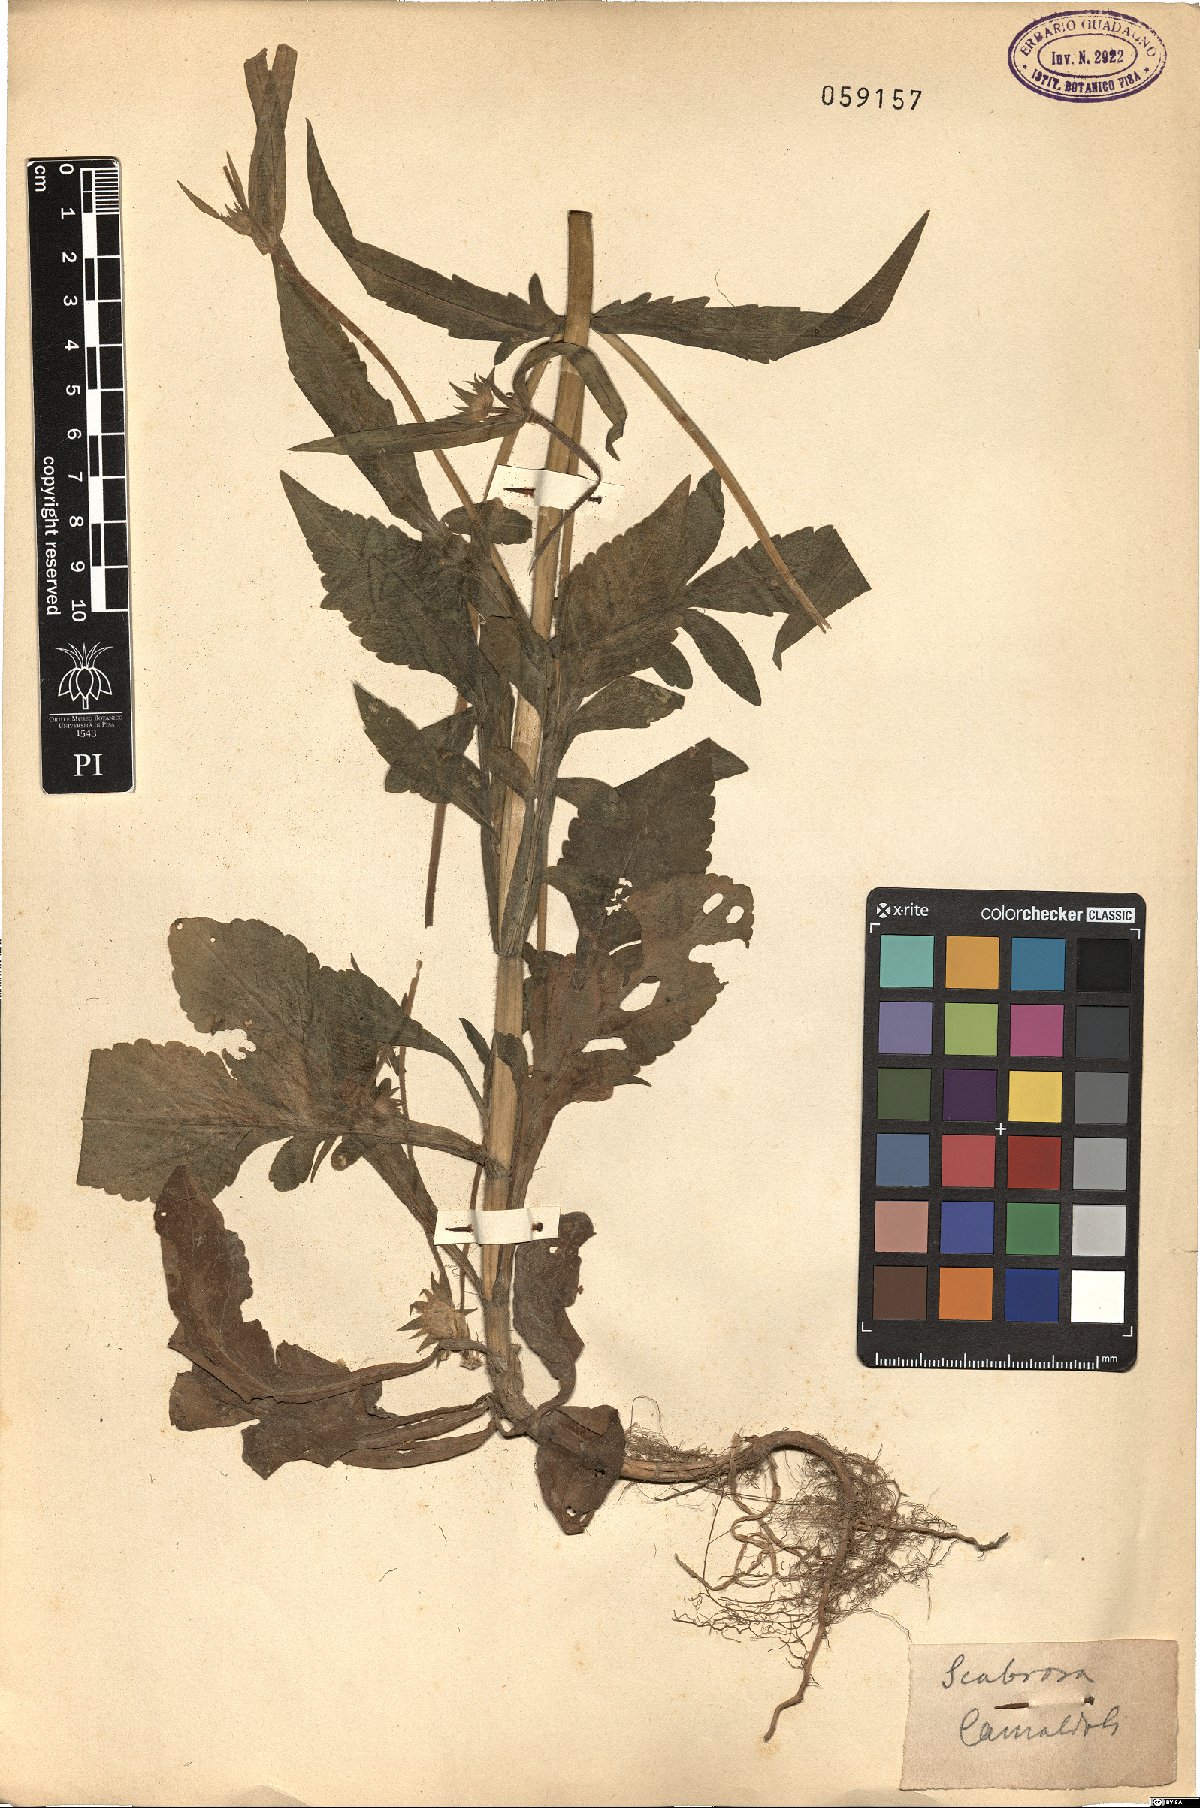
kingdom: Plantae
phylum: Tracheophyta
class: Magnoliopsida
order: Dipsacales
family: Caprifoliaceae
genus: Scabiosa
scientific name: Scabiosa
